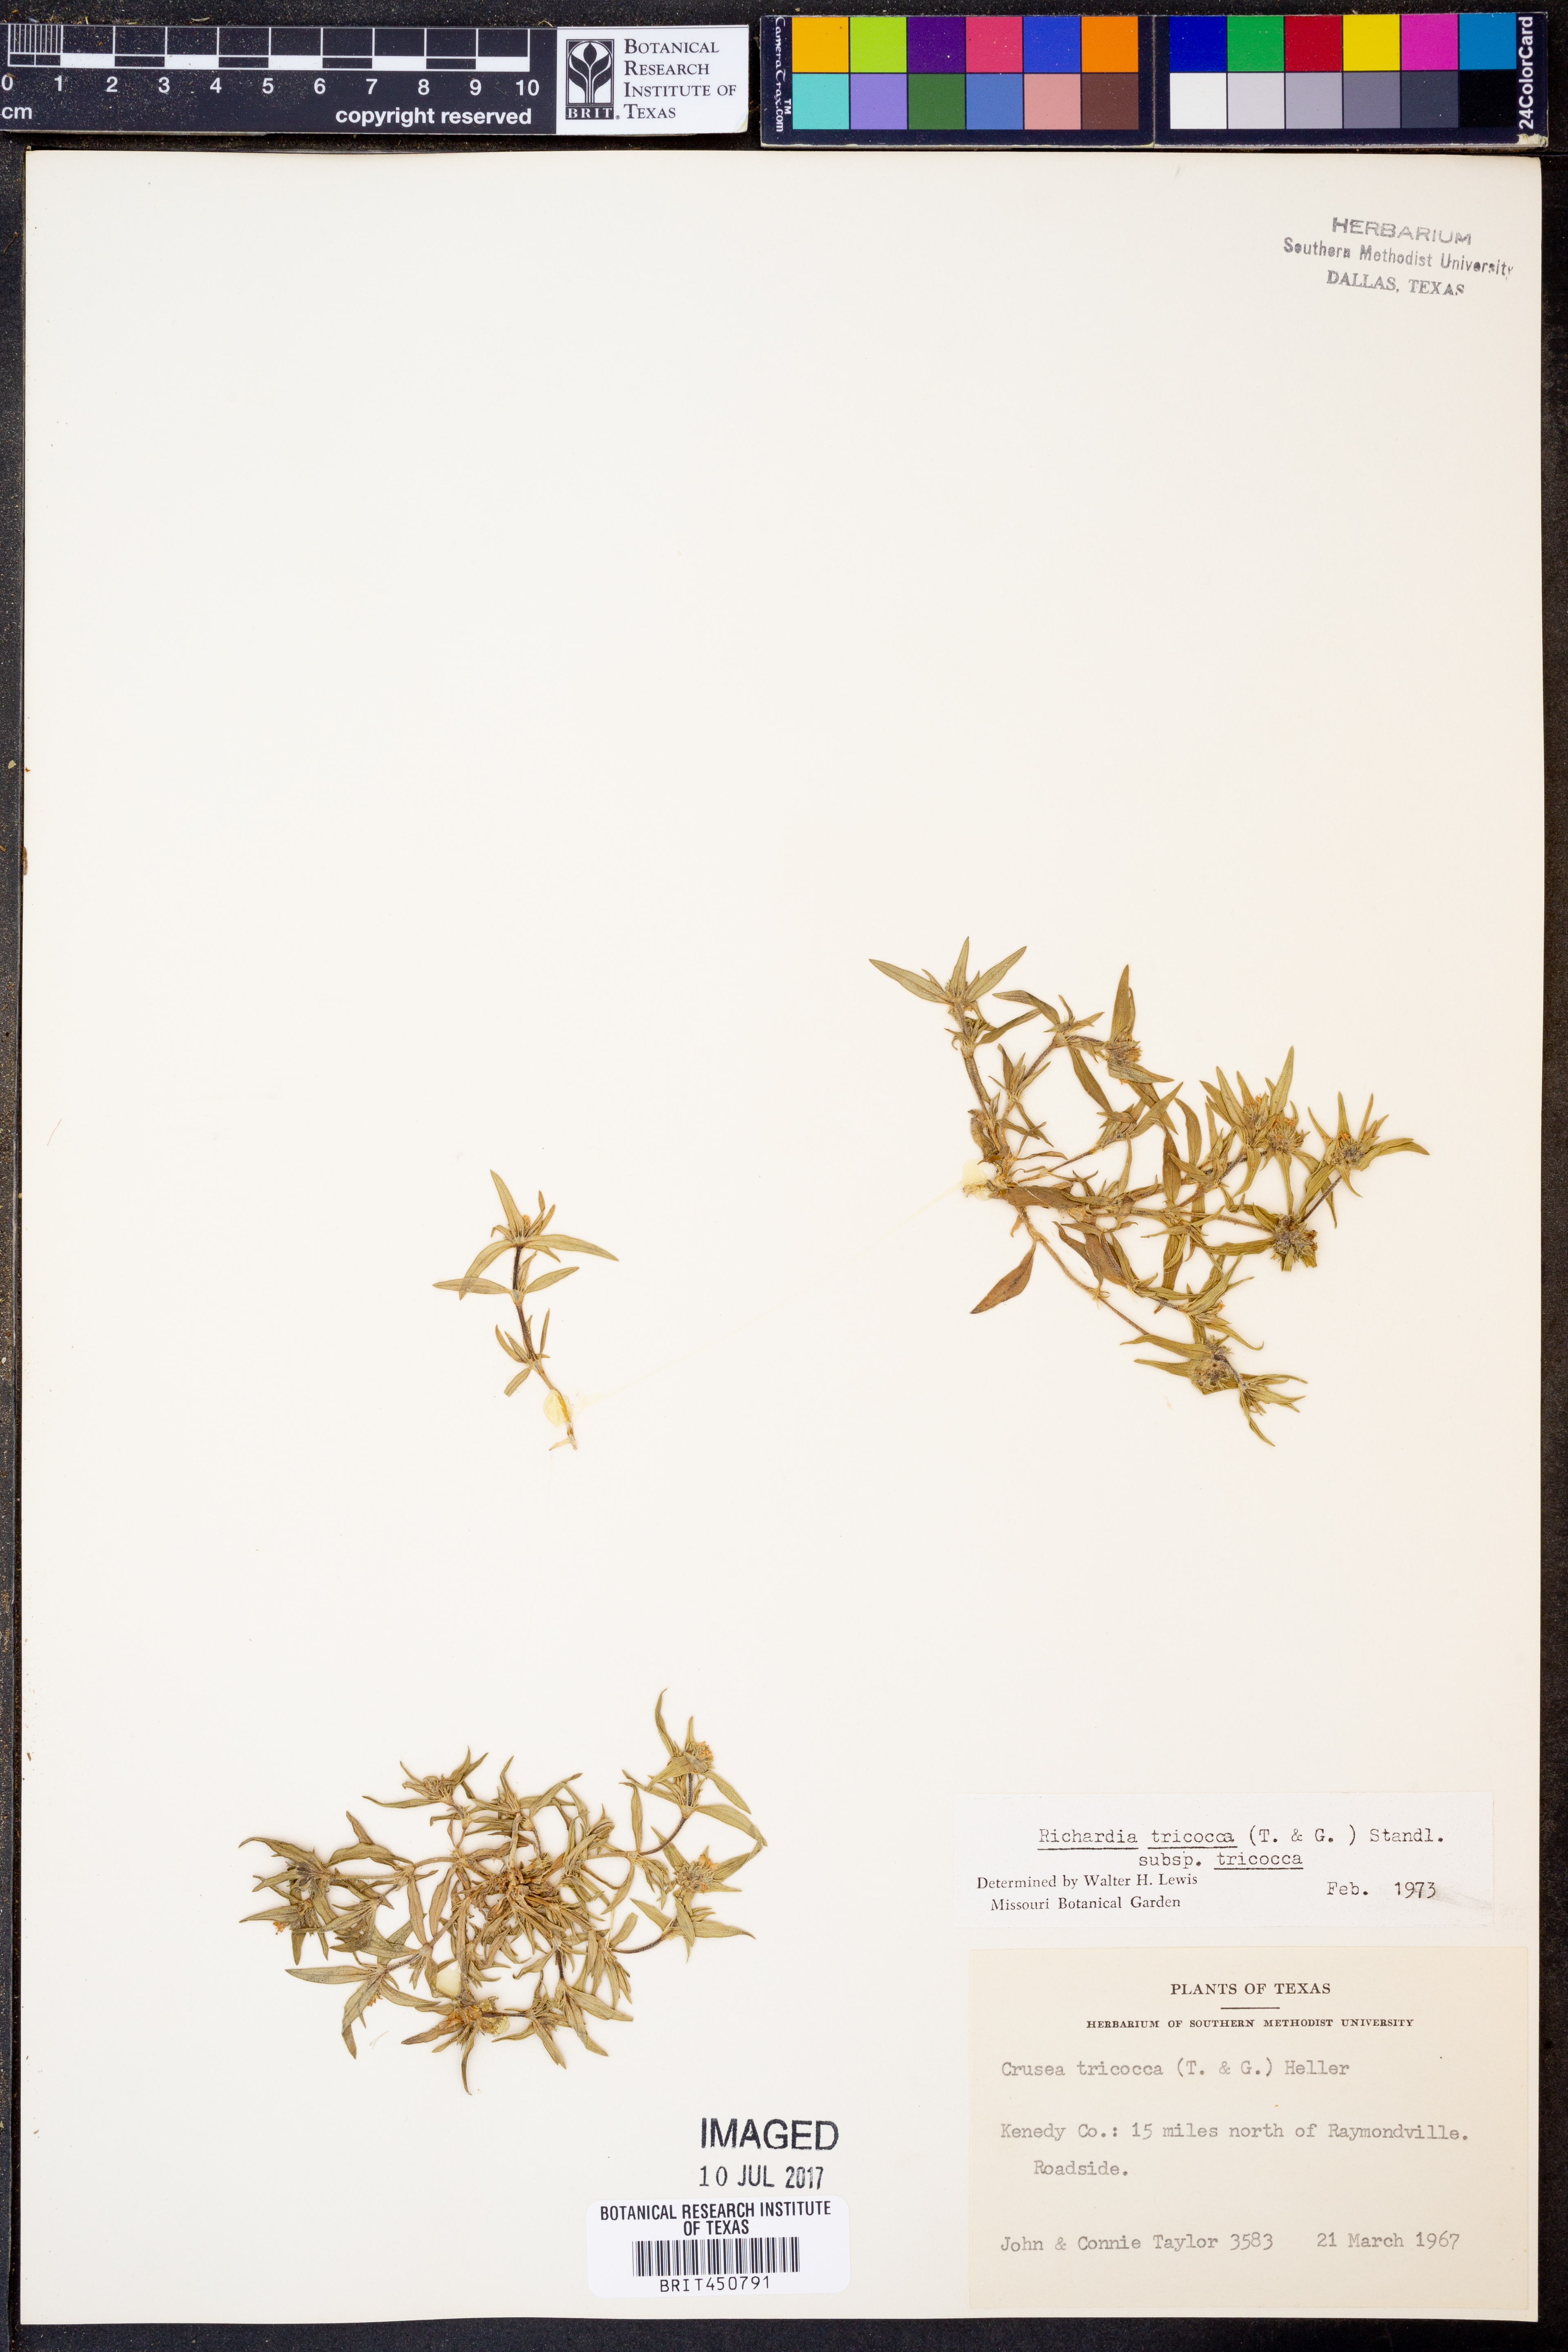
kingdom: Plantae
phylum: Tracheophyta
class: Magnoliopsida
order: Gentianales
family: Rubiaceae
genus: Richardia
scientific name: Richardia tricocca
